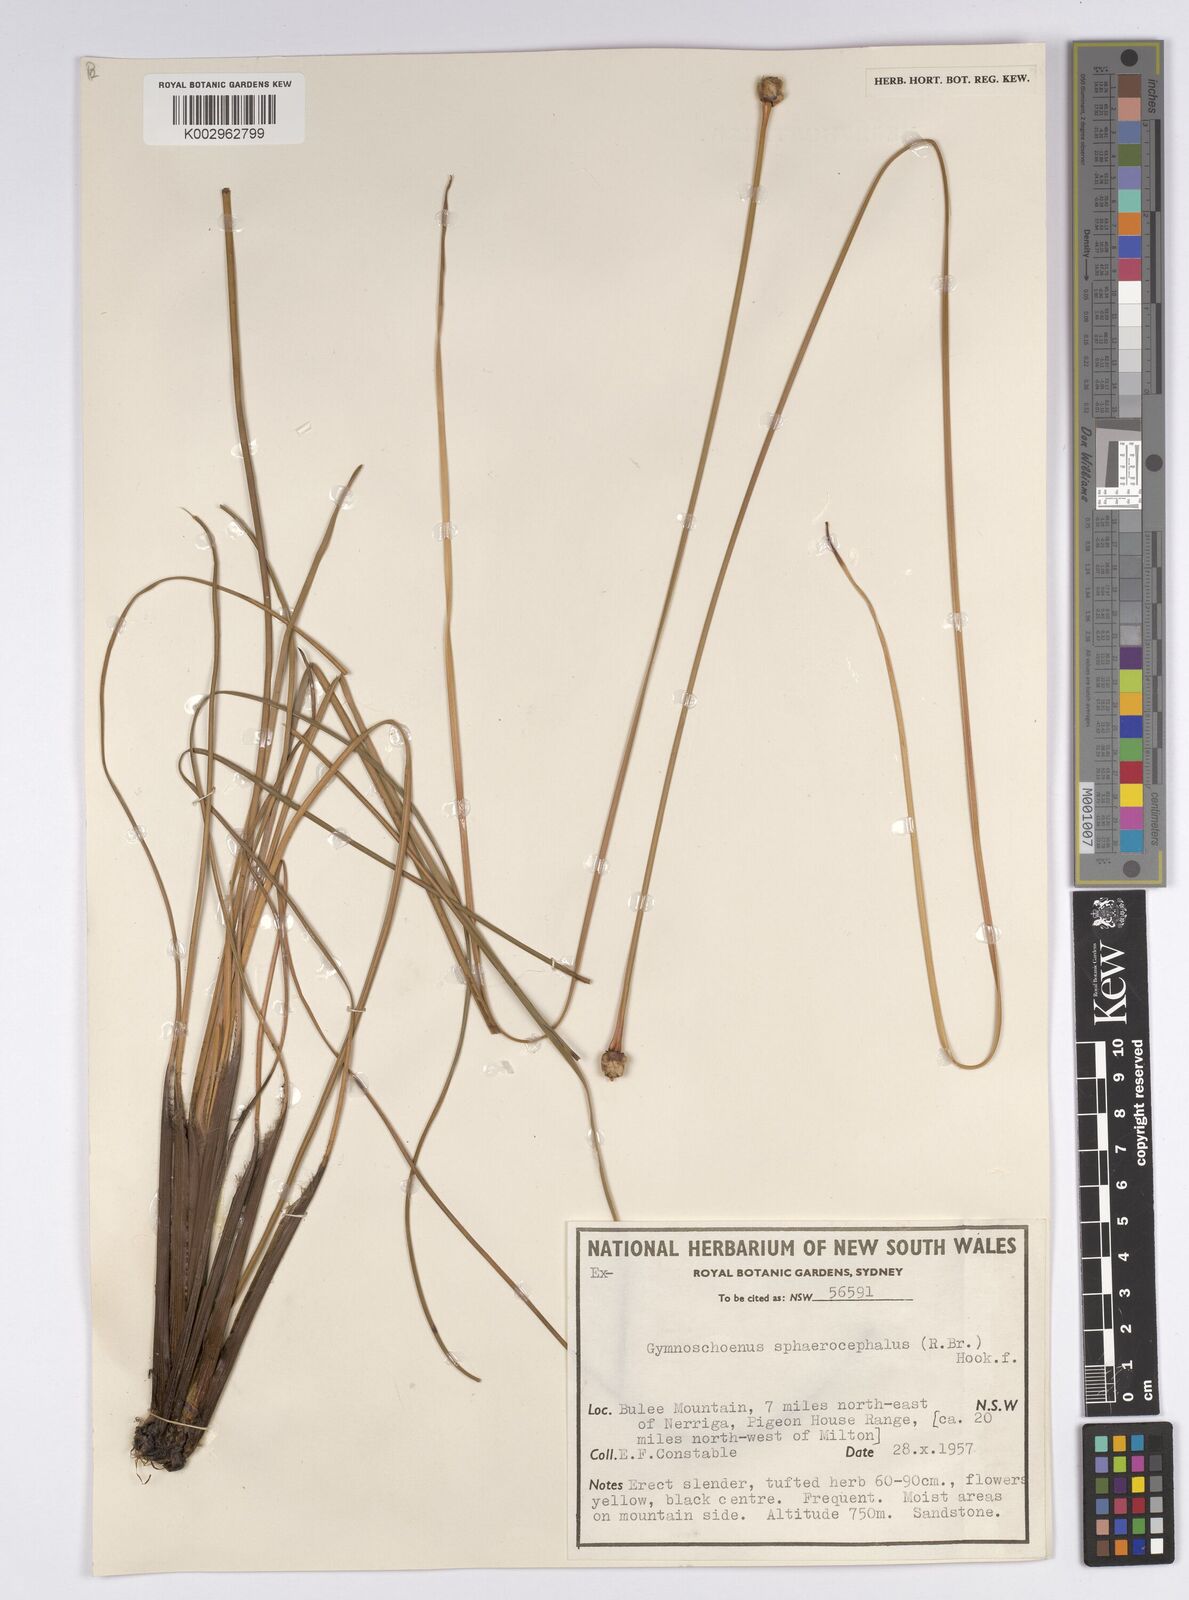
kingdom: Plantae
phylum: Tracheophyta
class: Liliopsida
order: Poales
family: Cyperaceae
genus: Gymnoschoenus
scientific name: Gymnoschoenus sphaerocephalus
